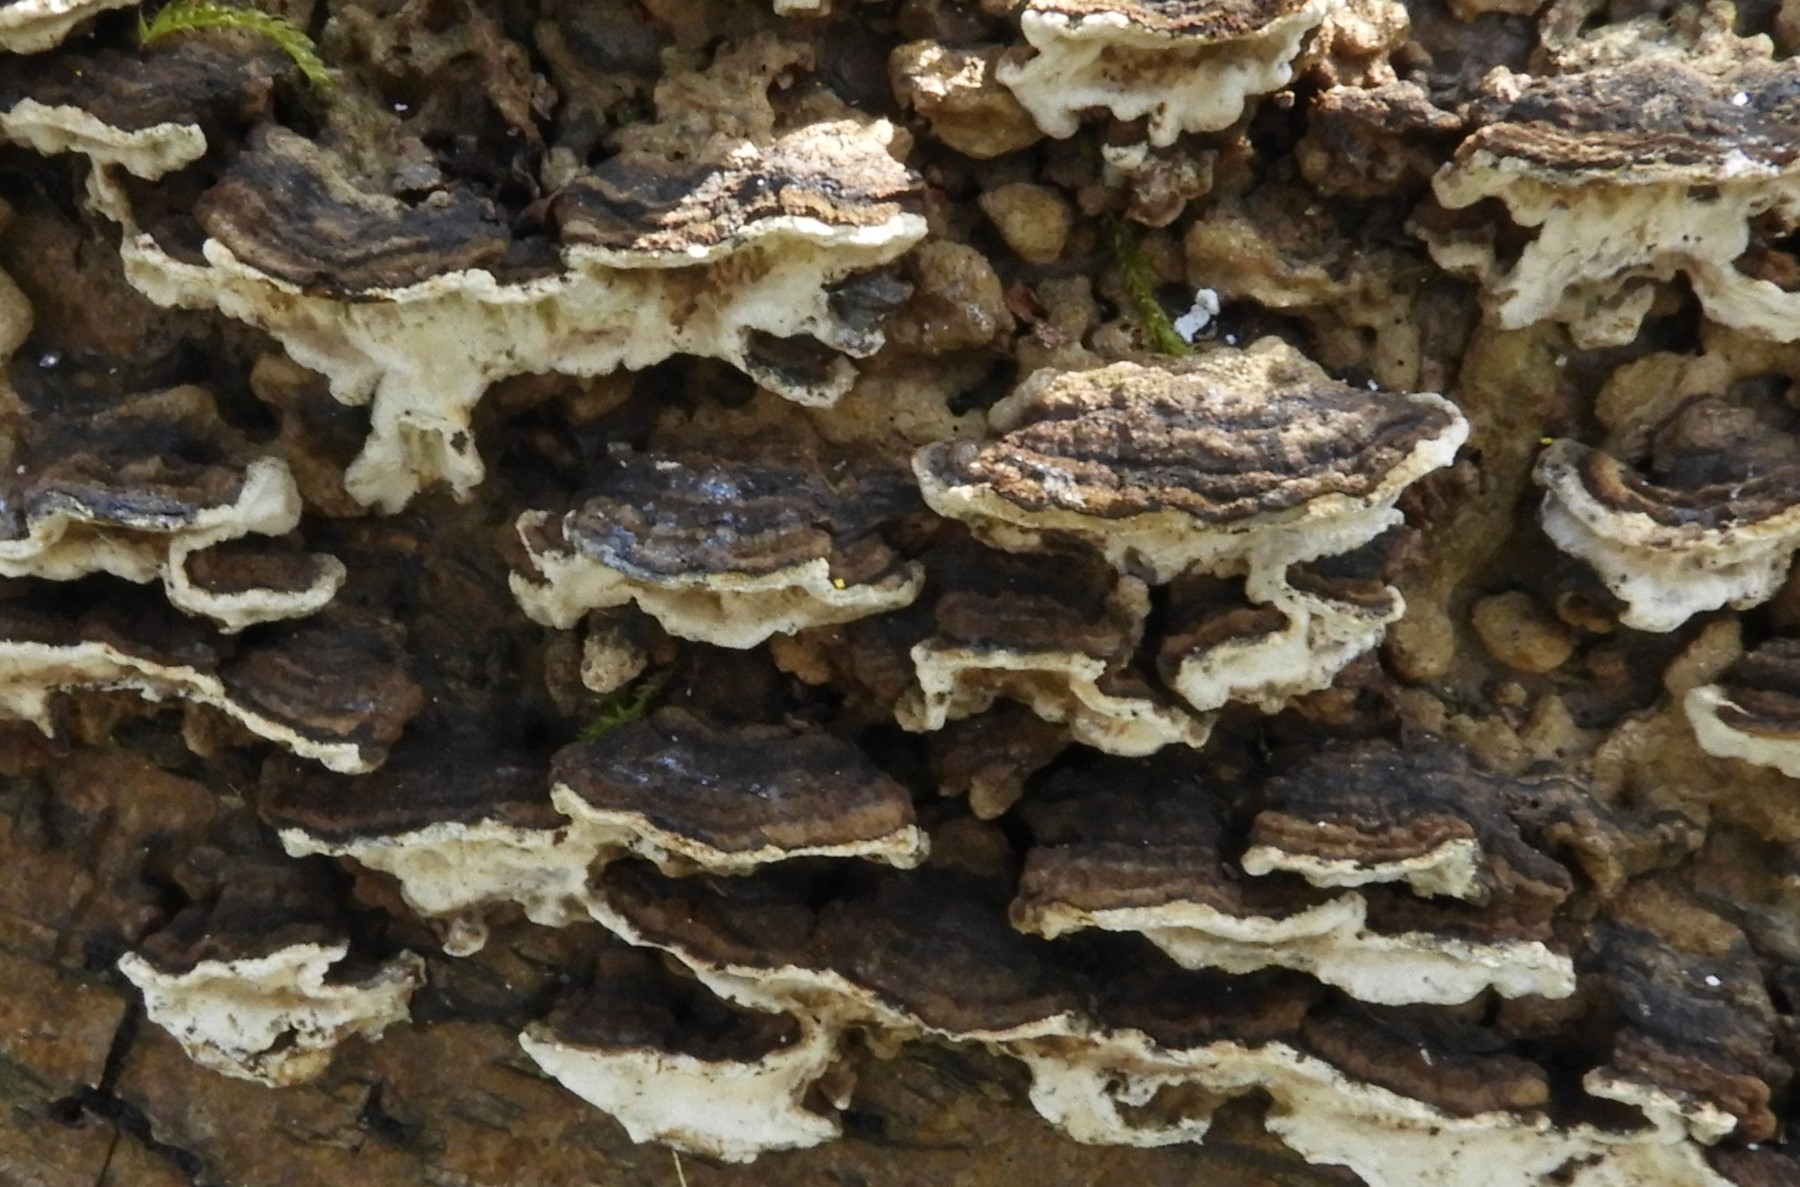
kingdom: Fungi
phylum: Basidiomycota
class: Agaricomycetes
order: Polyporales
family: Polyporaceae
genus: Podofomes
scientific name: Podofomes mollis
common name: blød begporesvamp
